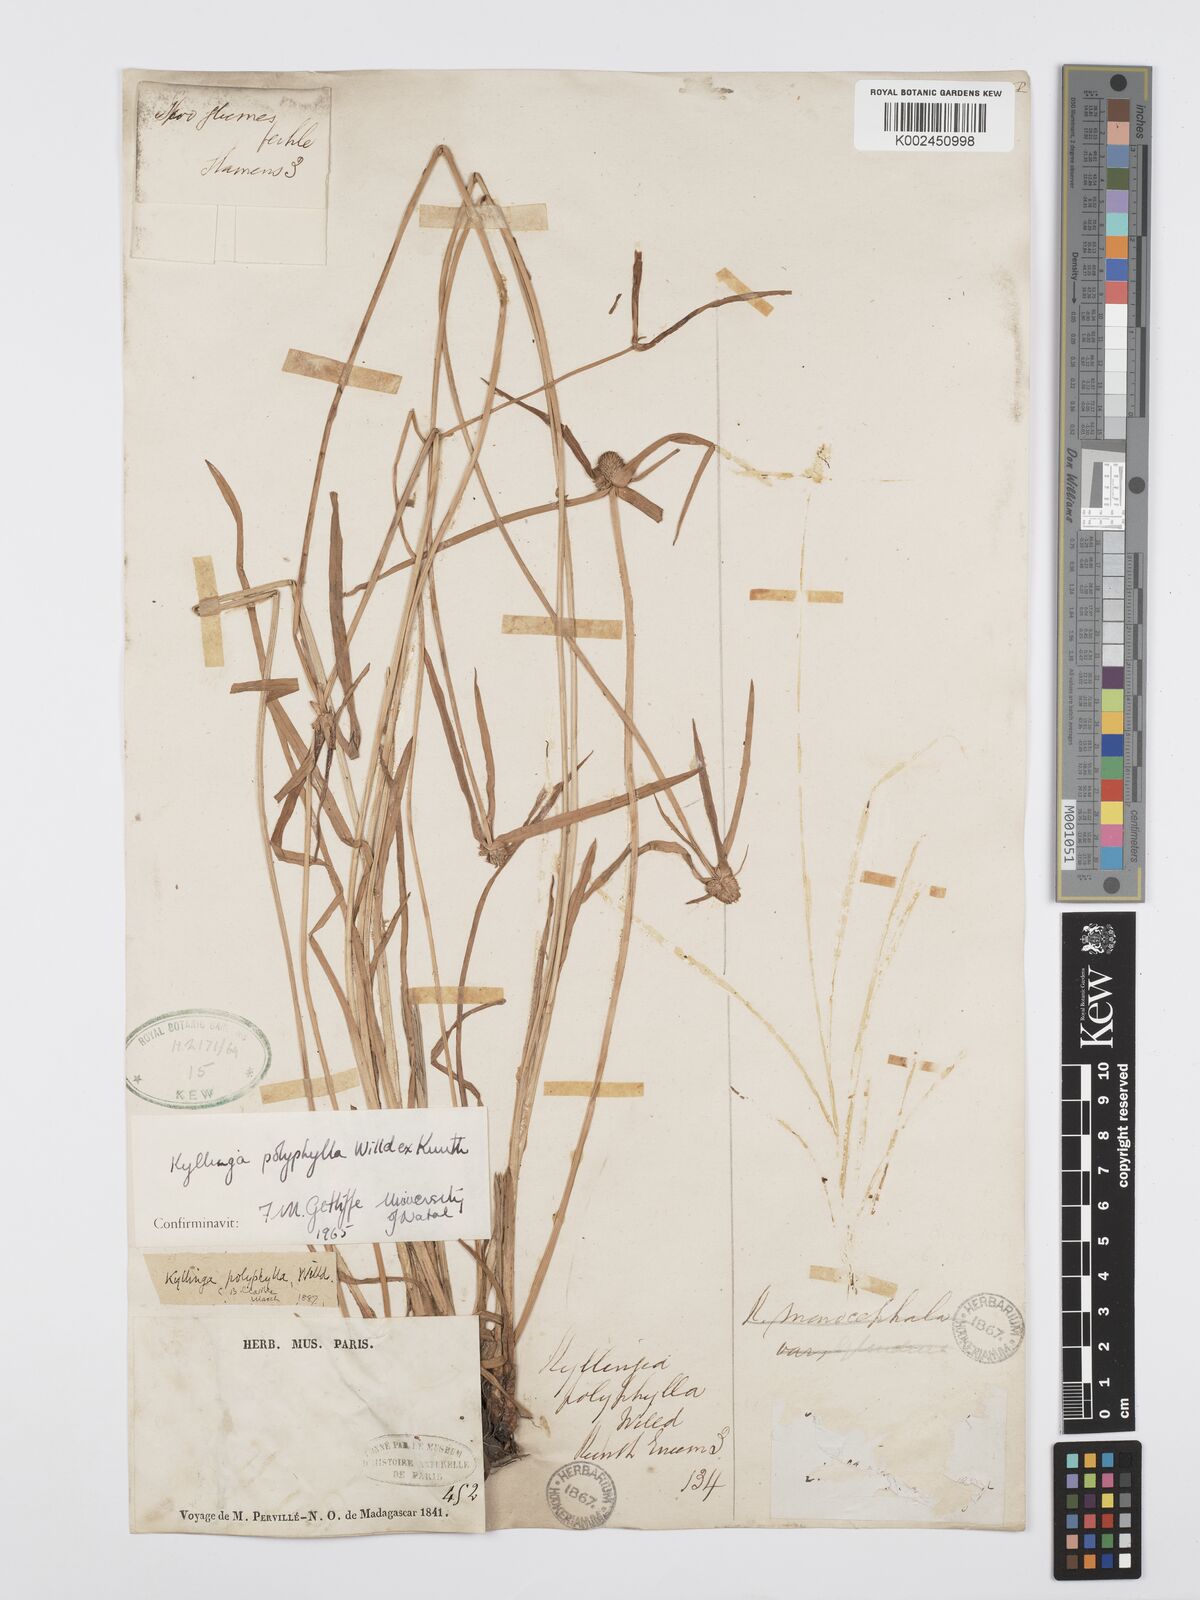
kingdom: Plantae
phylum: Tracheophyta
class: Liliopsida
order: Poales
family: Cyperaceae
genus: Cyperus
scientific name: Cyperus
